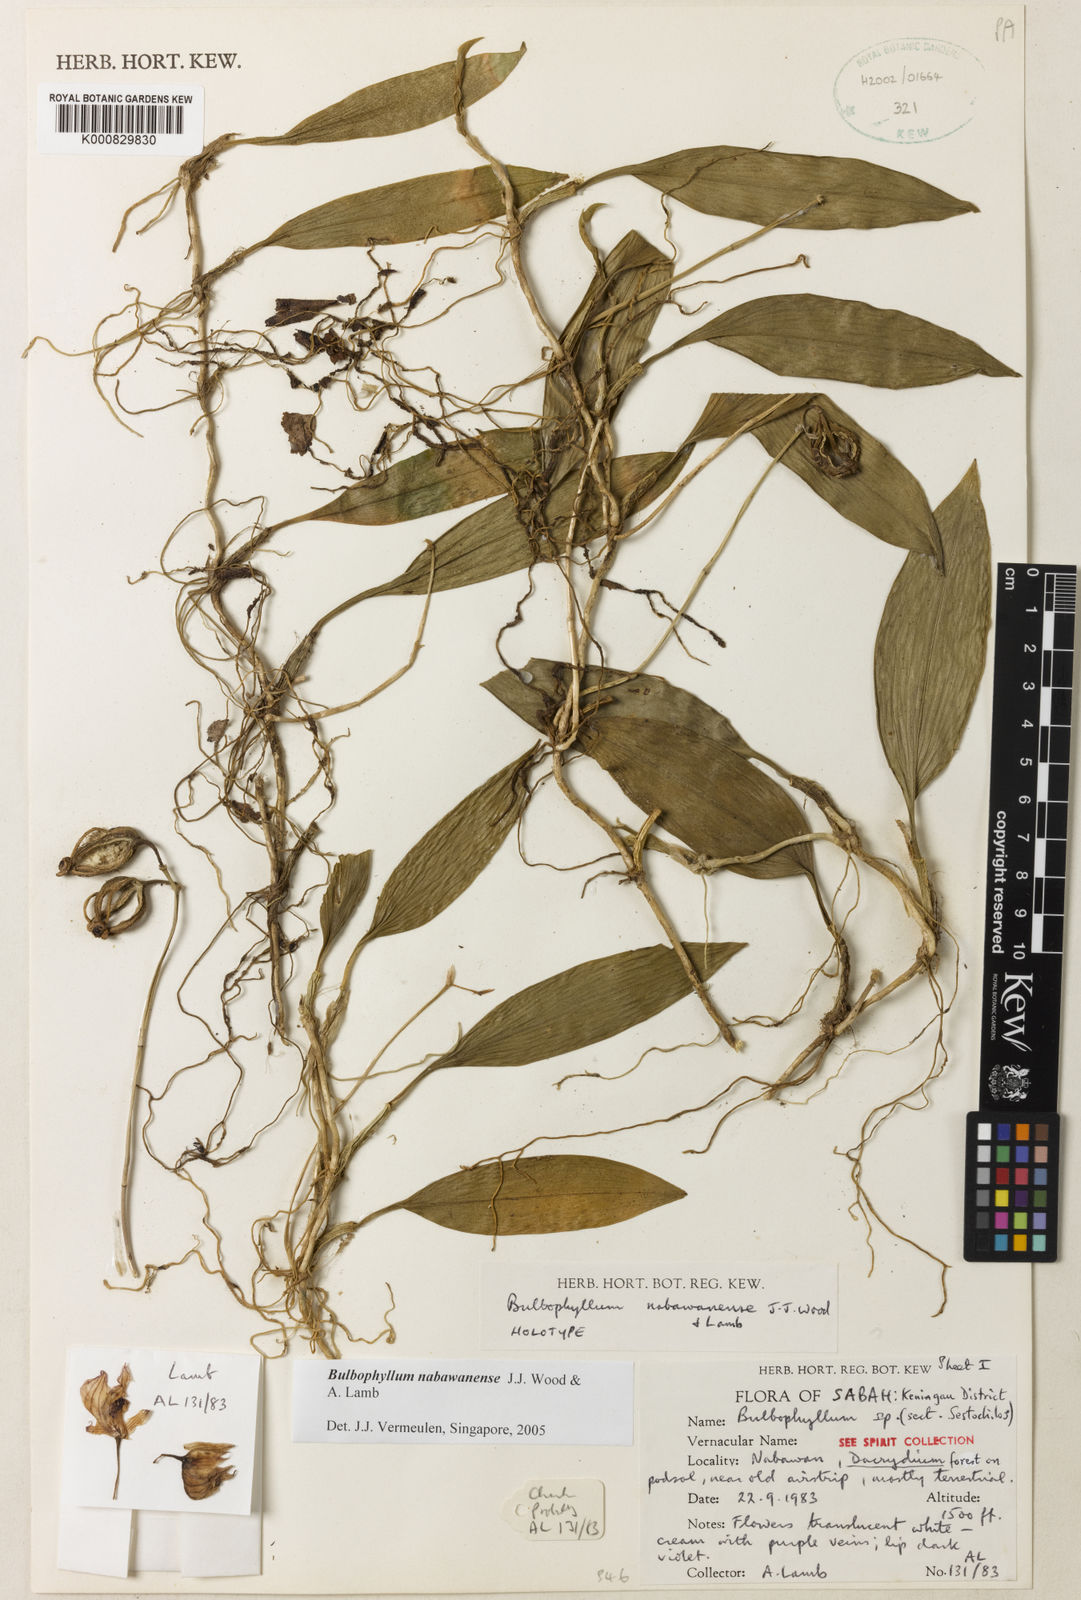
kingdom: Plantae
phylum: Tracheophyta
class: Liliopsida
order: Asparagales
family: Orchidaceae
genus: Bulbophyllum
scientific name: Bulbophyllum nabawanense
